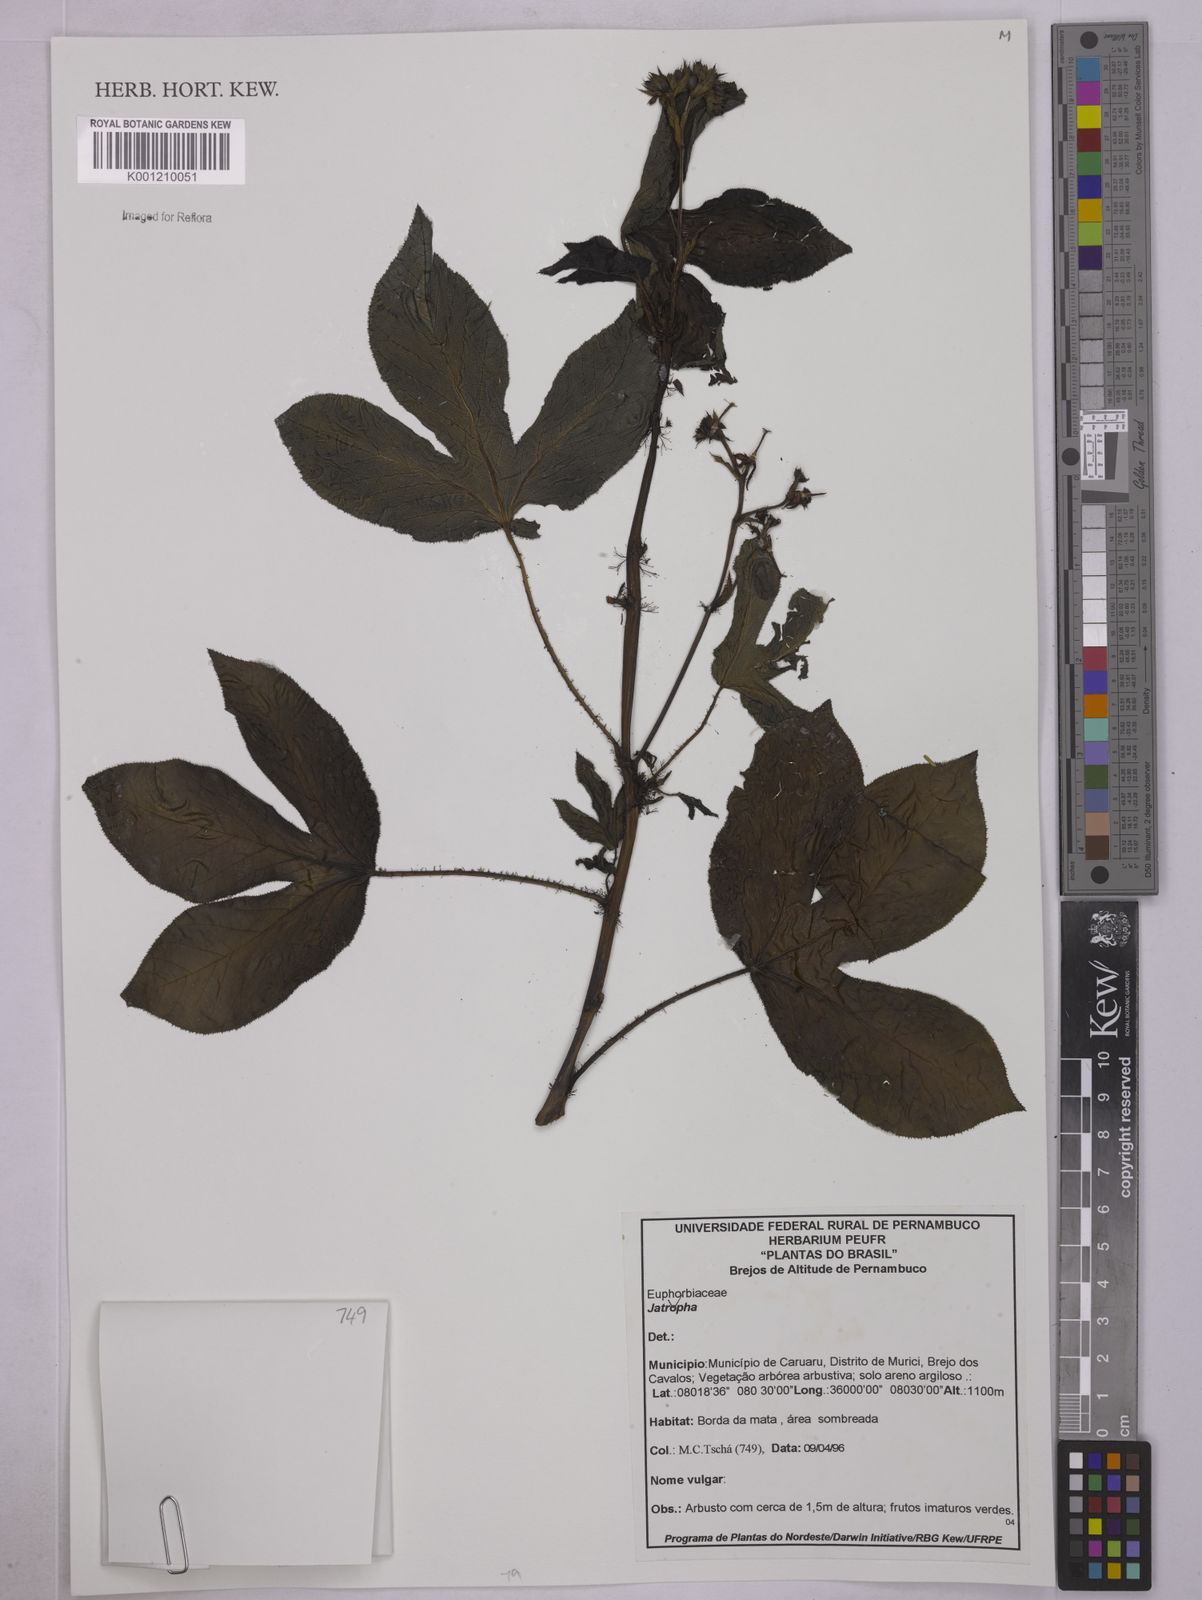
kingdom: Plantae
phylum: Tracheophyta
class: Magnoliopsida
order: Malpighiales
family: Euphorbiaceae
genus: Jatropha
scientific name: Jatropha
